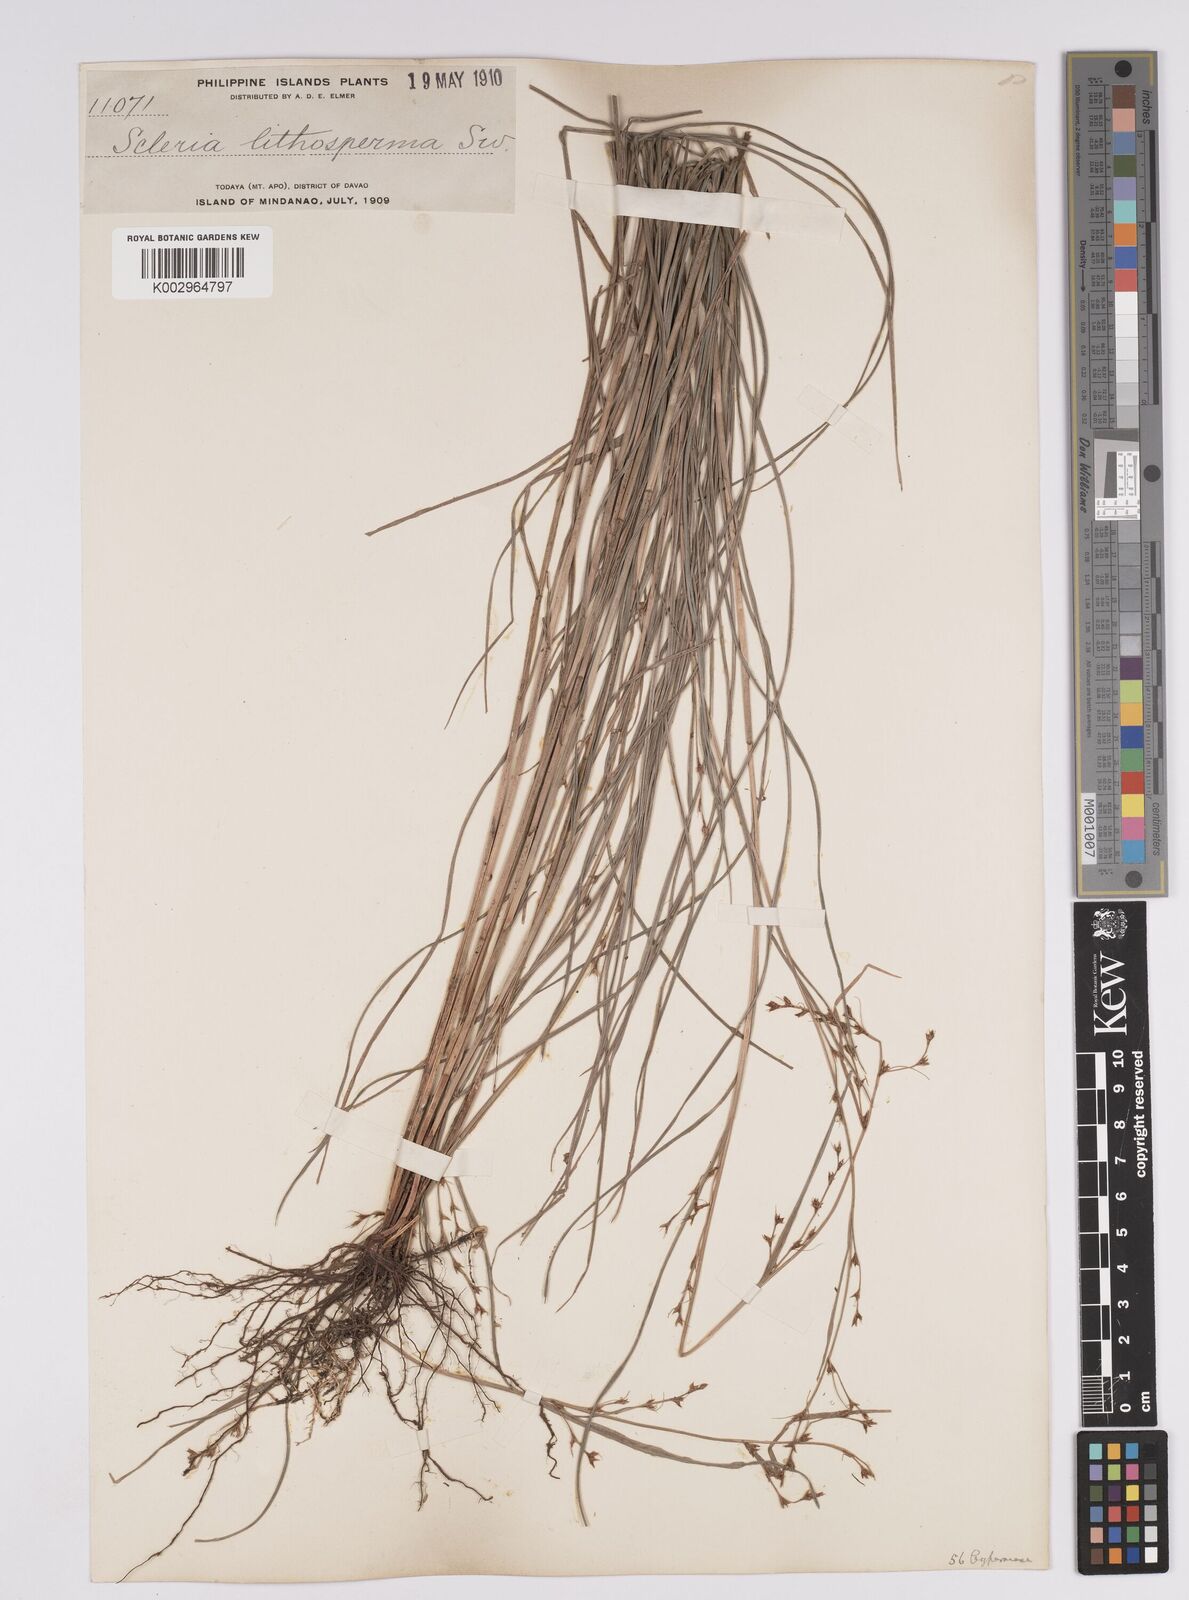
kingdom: Plantae
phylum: Tracheophyta
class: Liliopsida
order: Poales
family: Cyperaceae
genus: Scleria
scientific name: Scleria lithosperma
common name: Florida keys nut-rush
